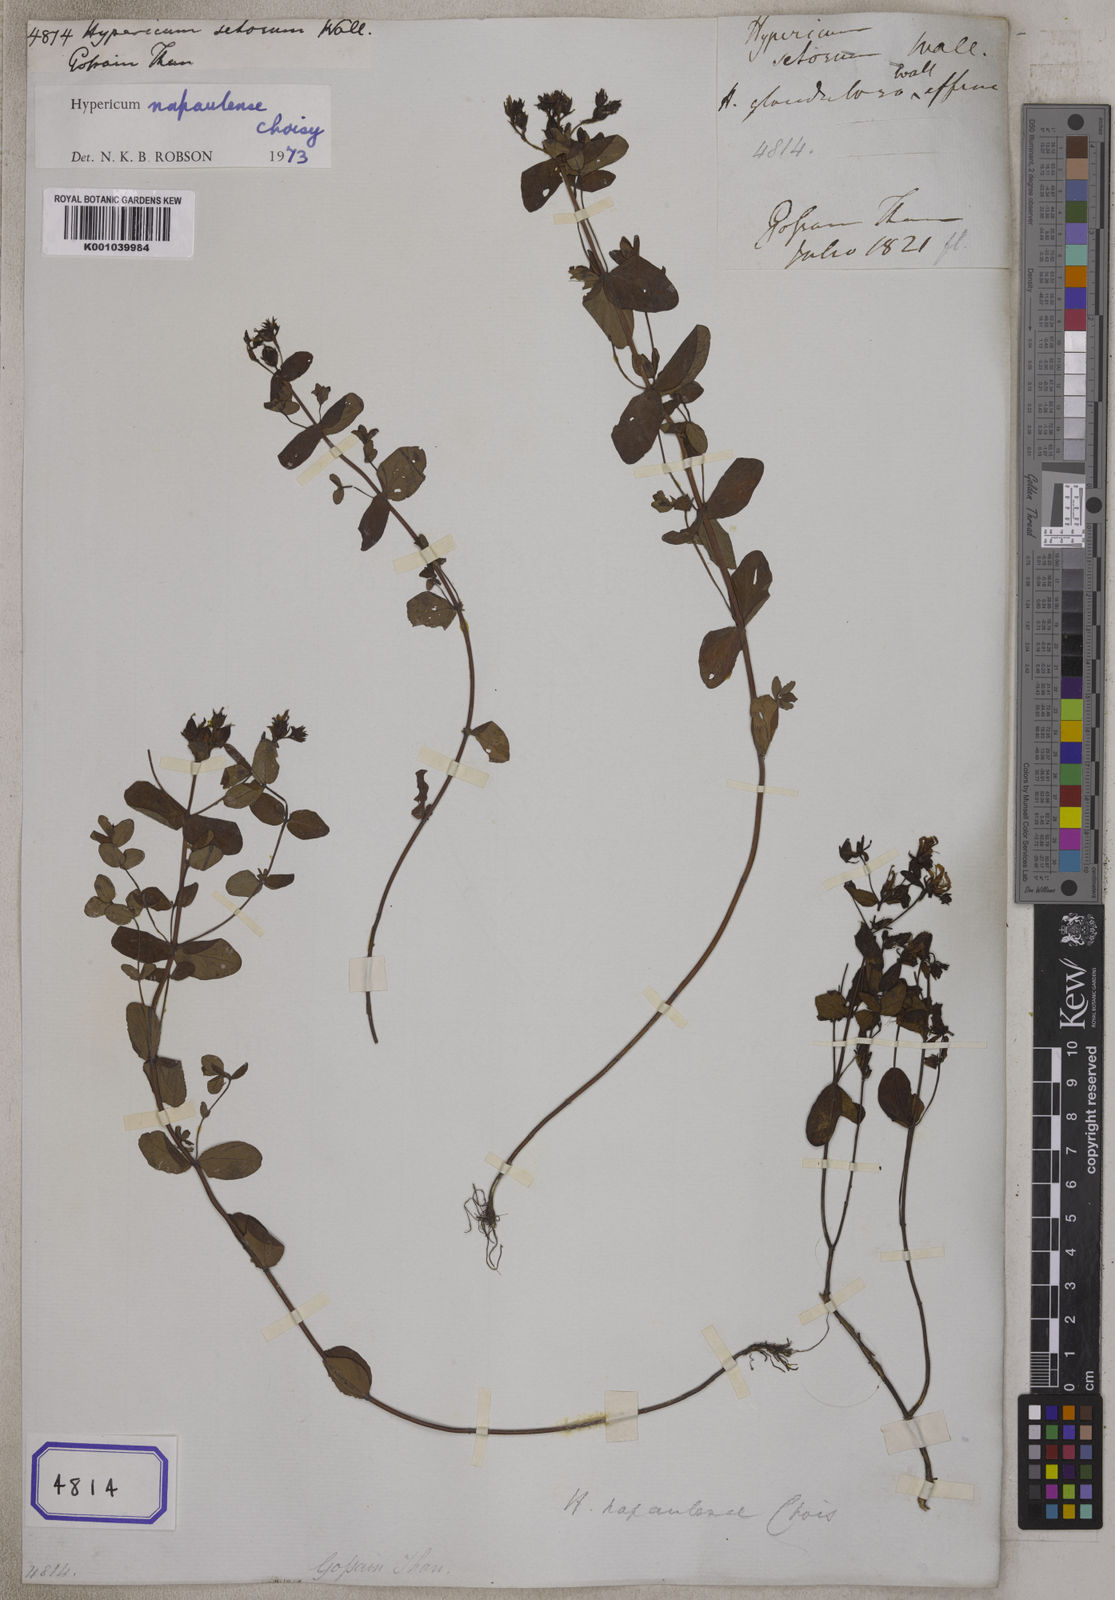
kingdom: Plantae
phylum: Tracheophyta
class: Magnoliopsida
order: Malpighiales
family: Hypericaceae
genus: Hypericum
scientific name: Hypericum
